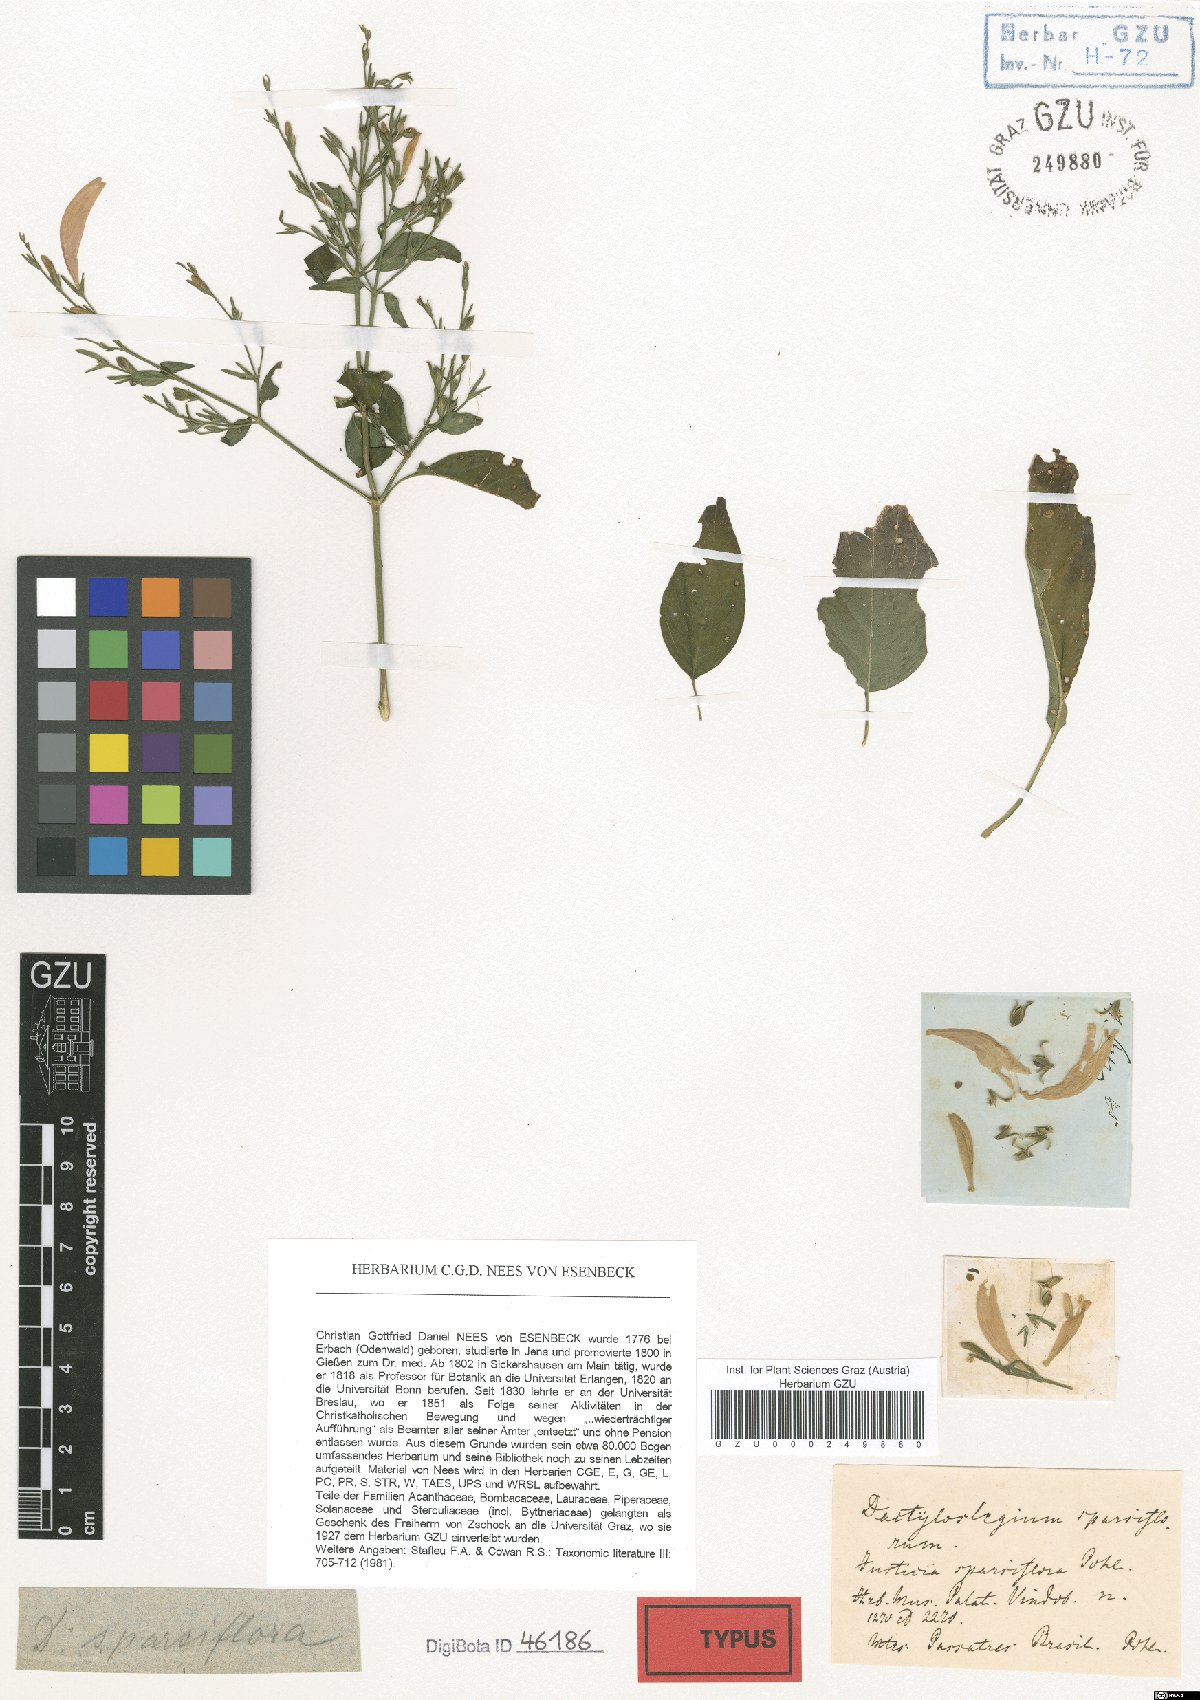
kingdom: Plantae
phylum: Tracheophyta
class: Magnoliopsida
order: Lamiales
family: Acanthaceae
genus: Dicliptera
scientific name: Dicliptera sparsiflora
